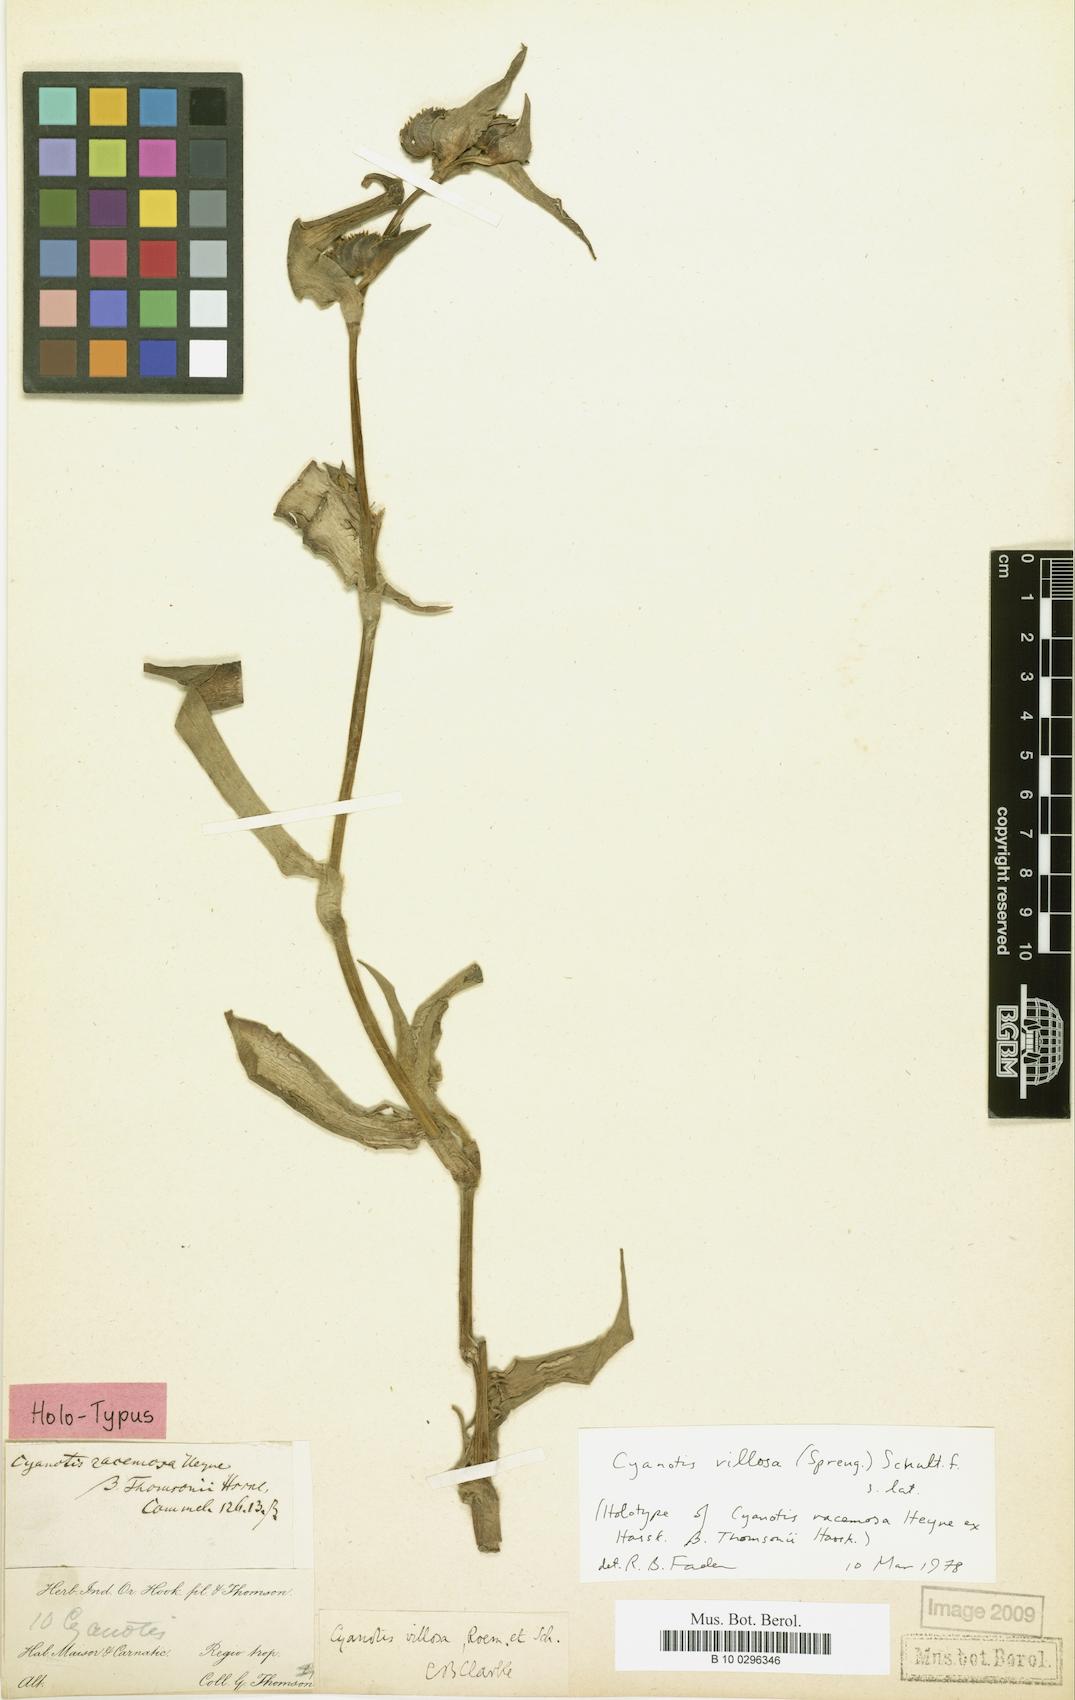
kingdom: Plantae
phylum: Tracheophyta
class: Liliopsida
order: Commelinales
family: Commelinaceae
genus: Cyanotis
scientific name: Cyanotis villosa
